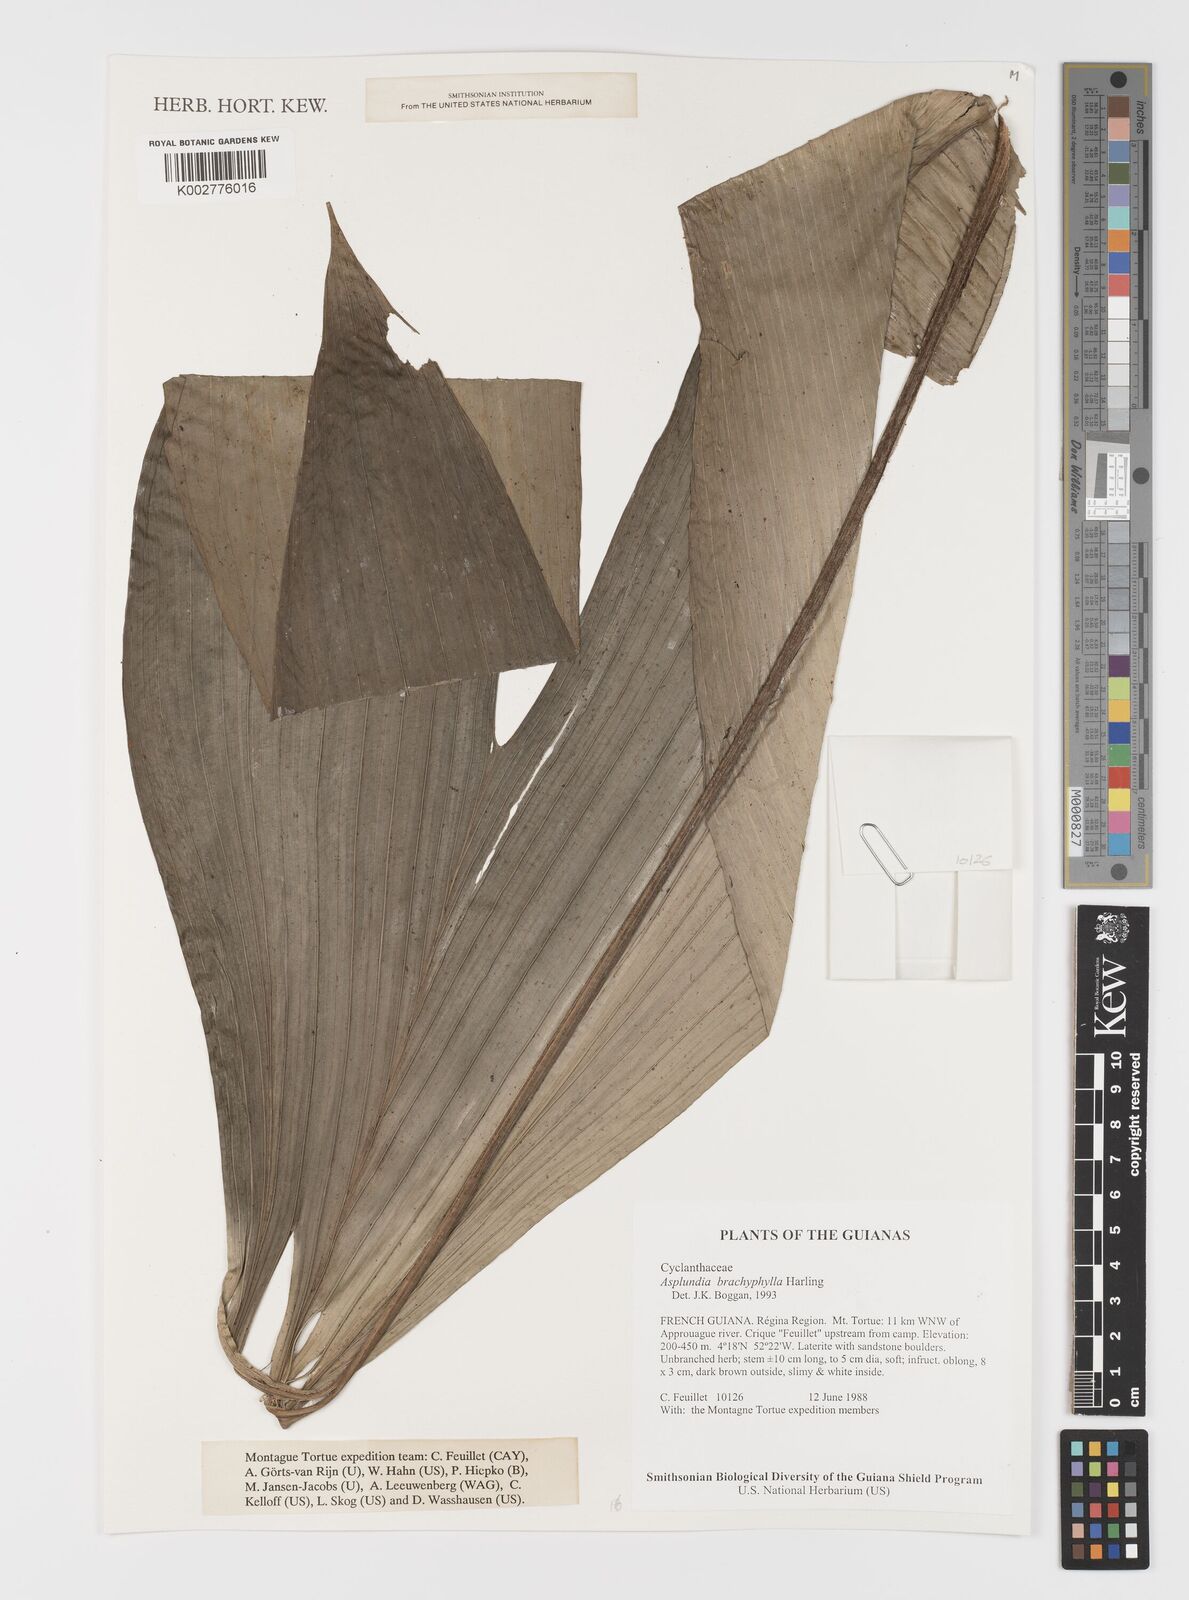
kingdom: Plantae
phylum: Tracheophyta
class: Liliopsida
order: Pandanales
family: Cyclanthaceae
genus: Asplundia
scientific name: Asplundia brachyphylla
